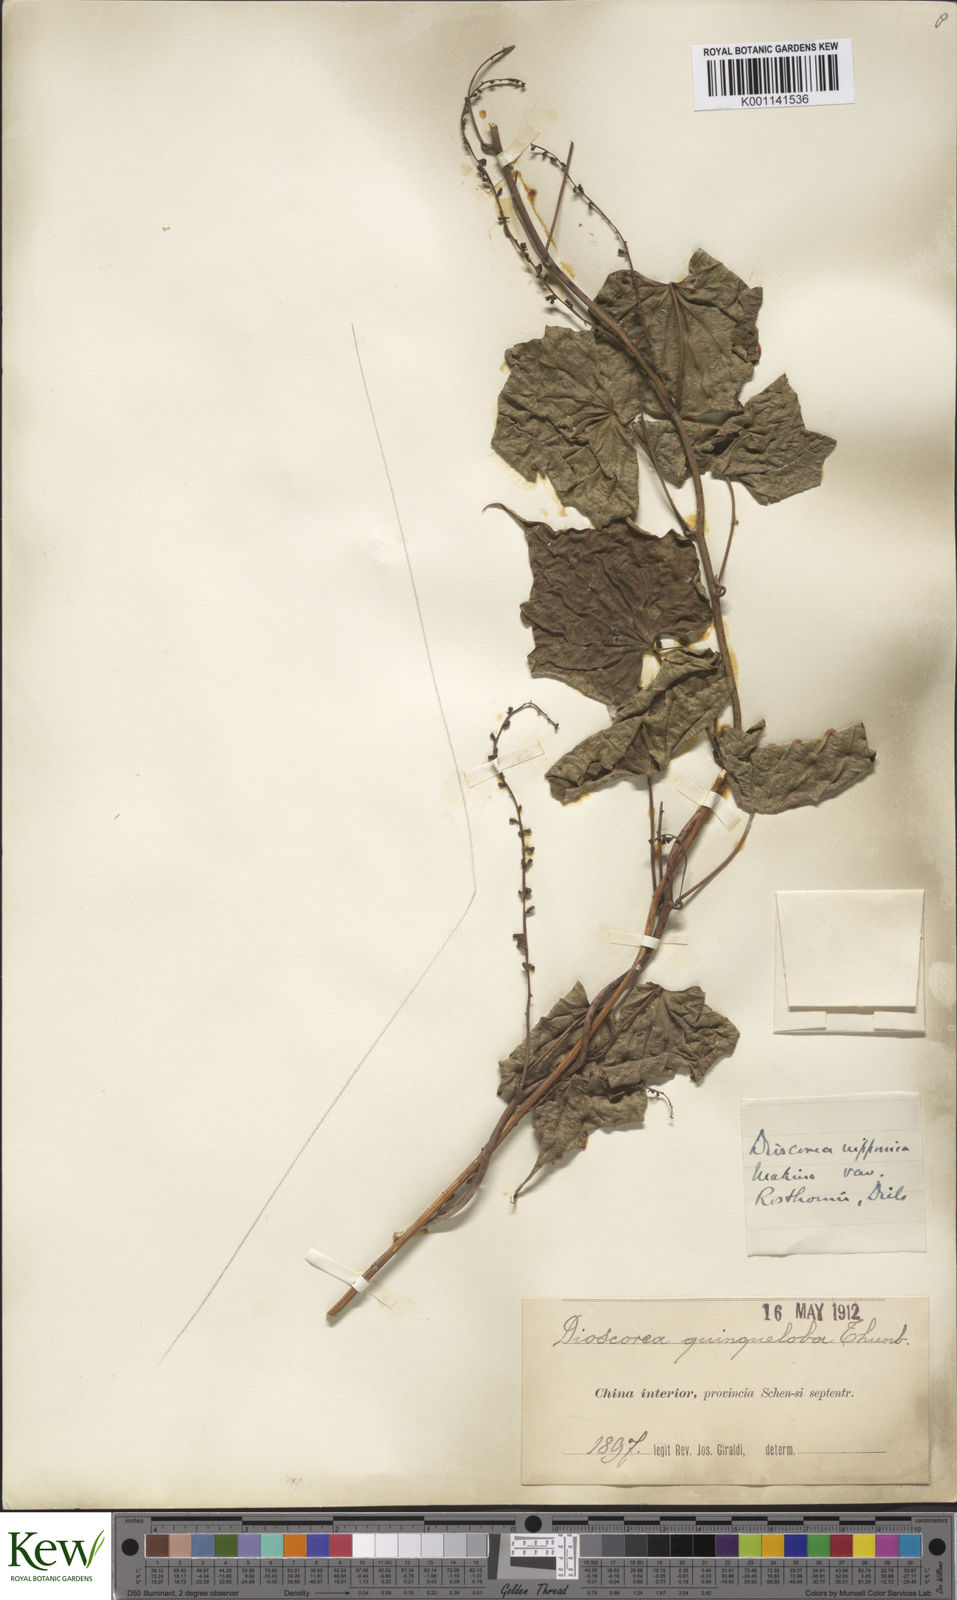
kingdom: Plantae
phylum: Tracheophyta
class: Liliopsida
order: Dioscoreales
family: Dioscoreaceae
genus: Dioscorea
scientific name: Dioscorea nipponica
